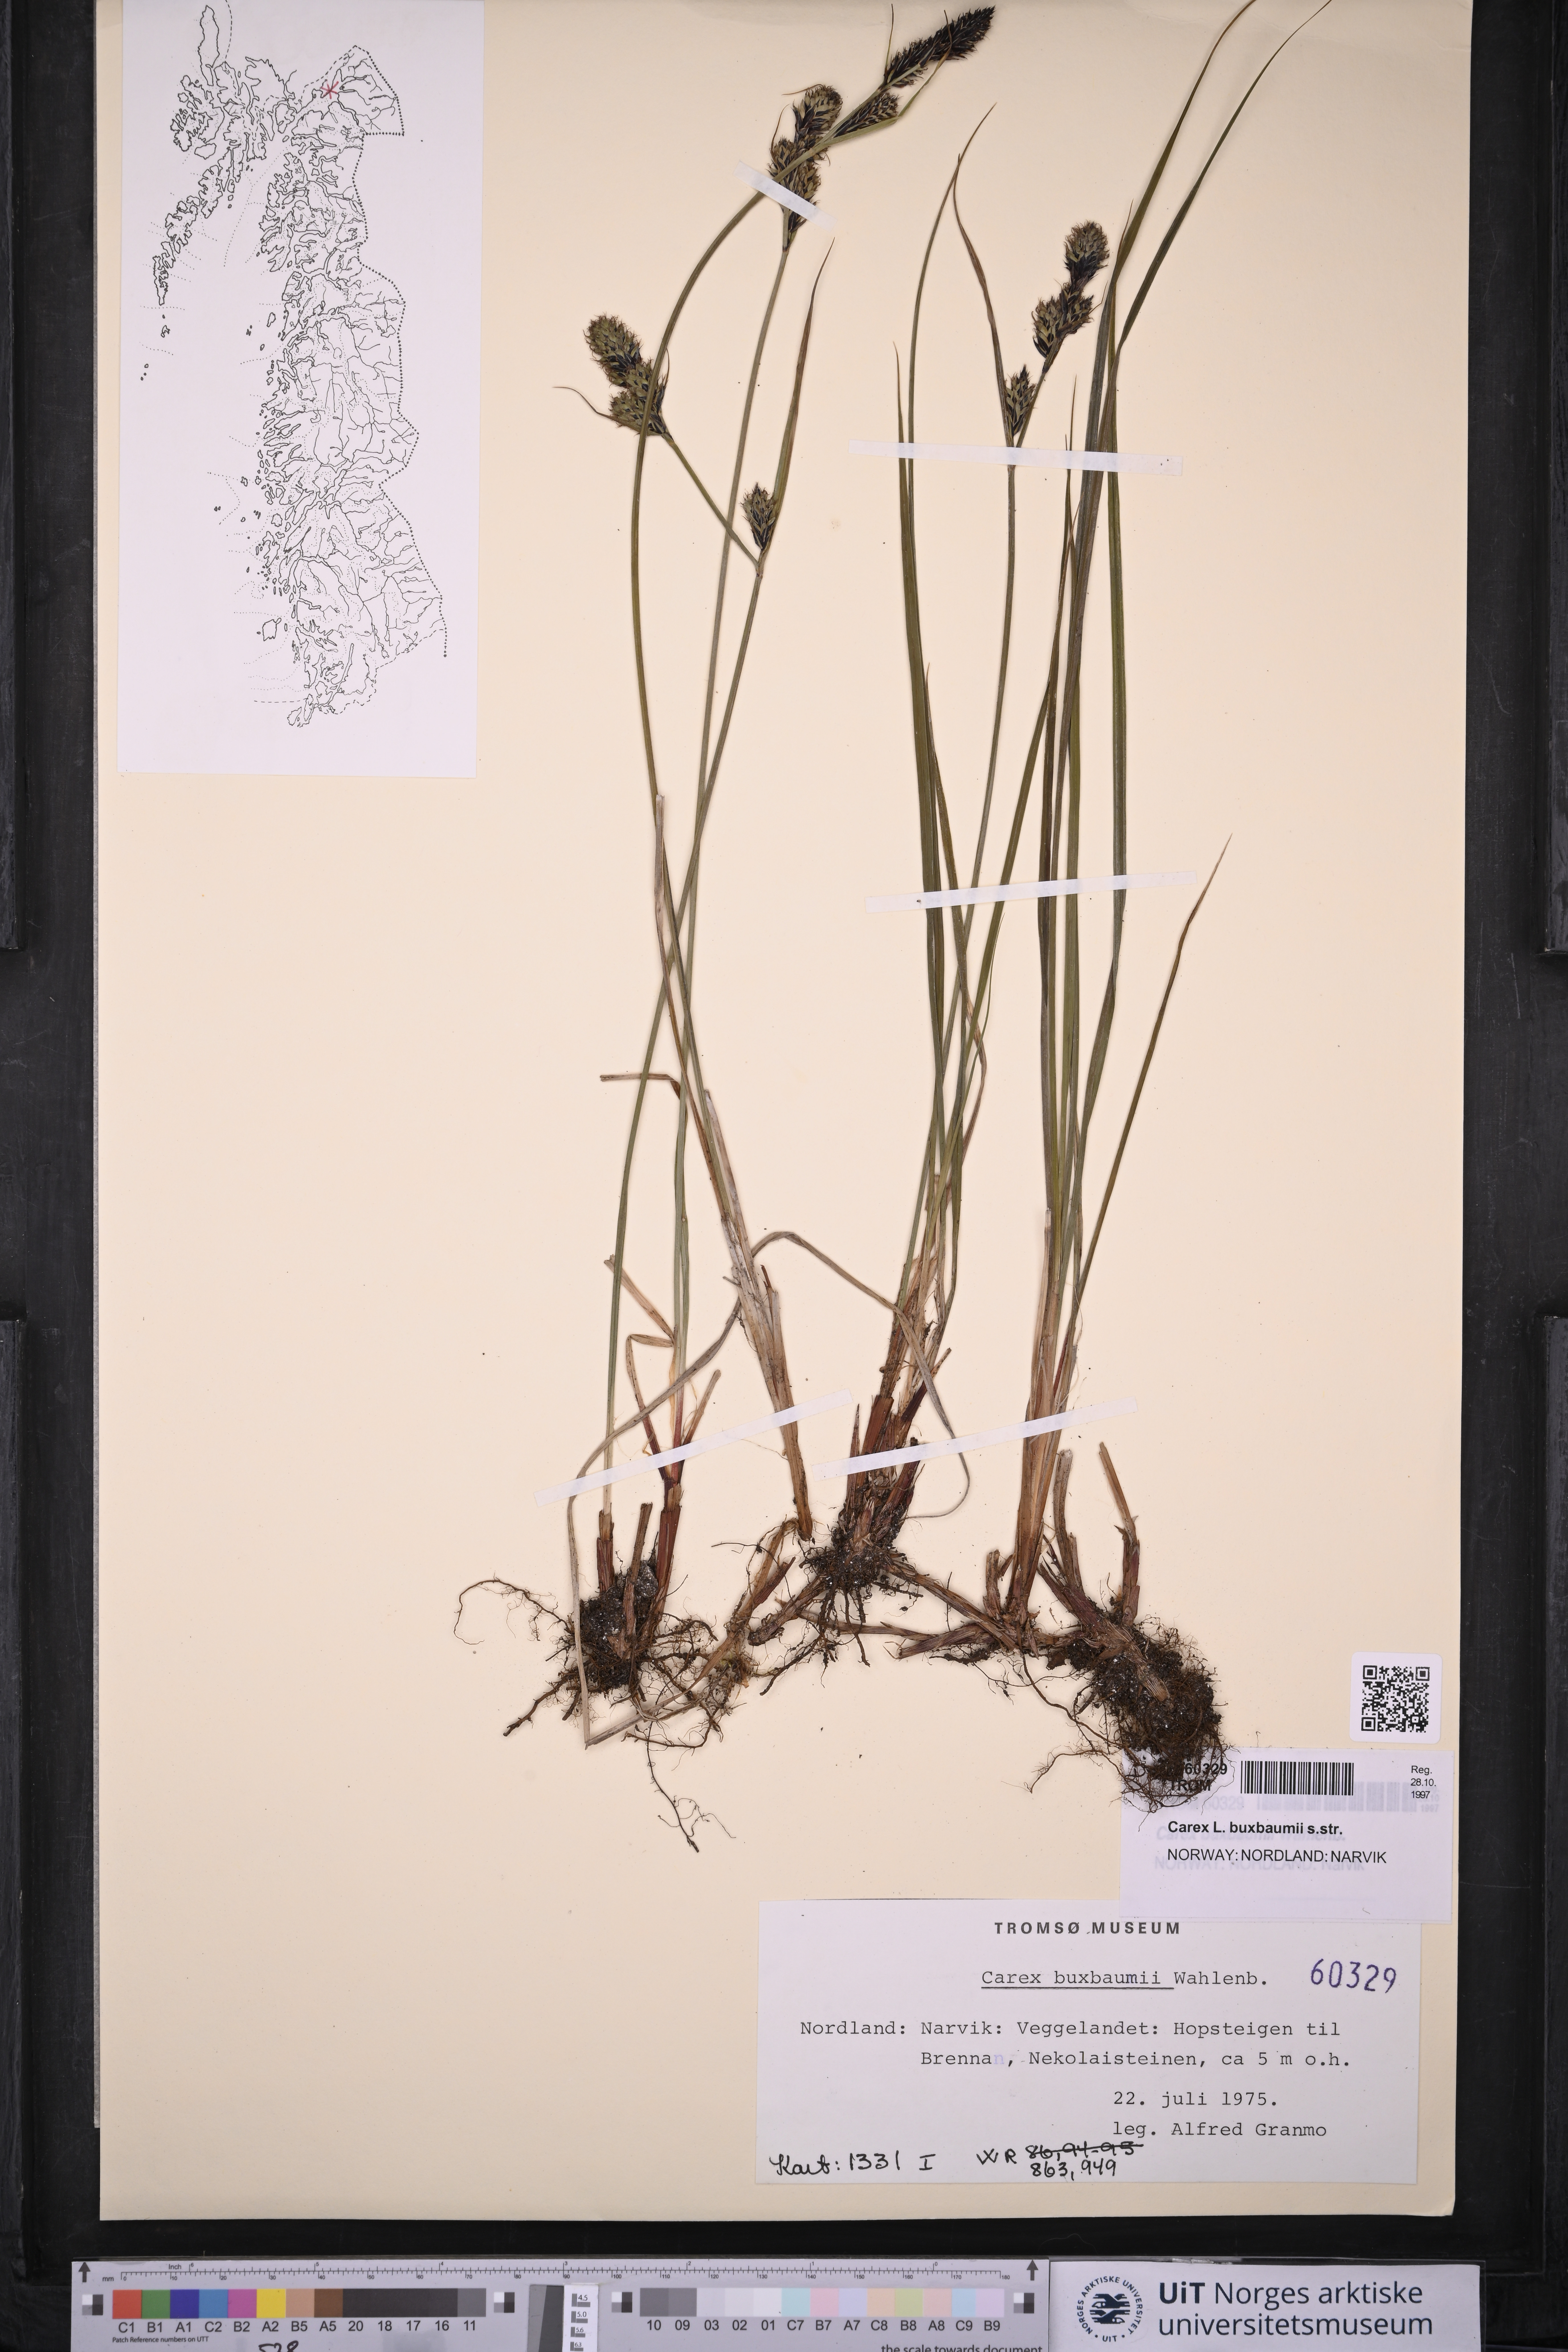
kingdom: Plantae
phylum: Tracheophyta
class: Liliopsida
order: Poales
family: Cyperaceae
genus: Carex
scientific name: Carex buxbaumii
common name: Club sedge
